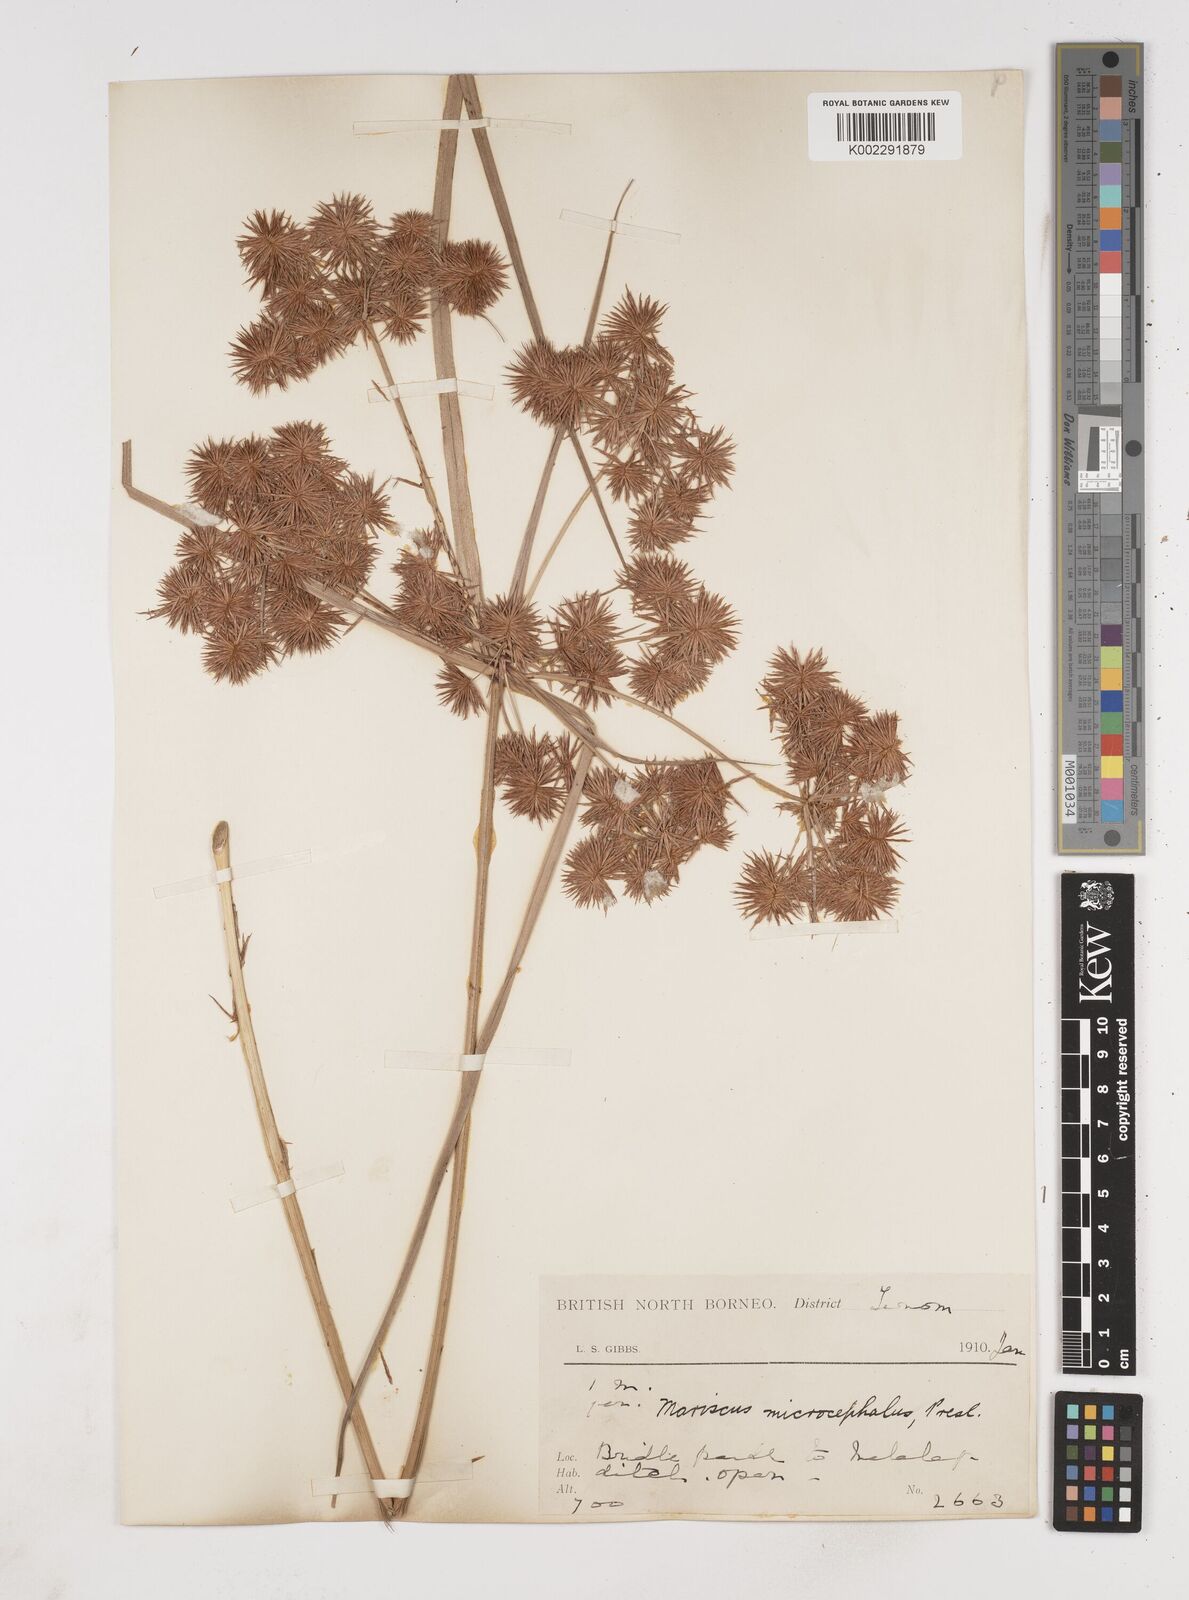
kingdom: Plantae
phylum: Tracheophyta
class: Liliopsida
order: Poales
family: Cyperaceae
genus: Cyperus
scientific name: Cyperus compactus
